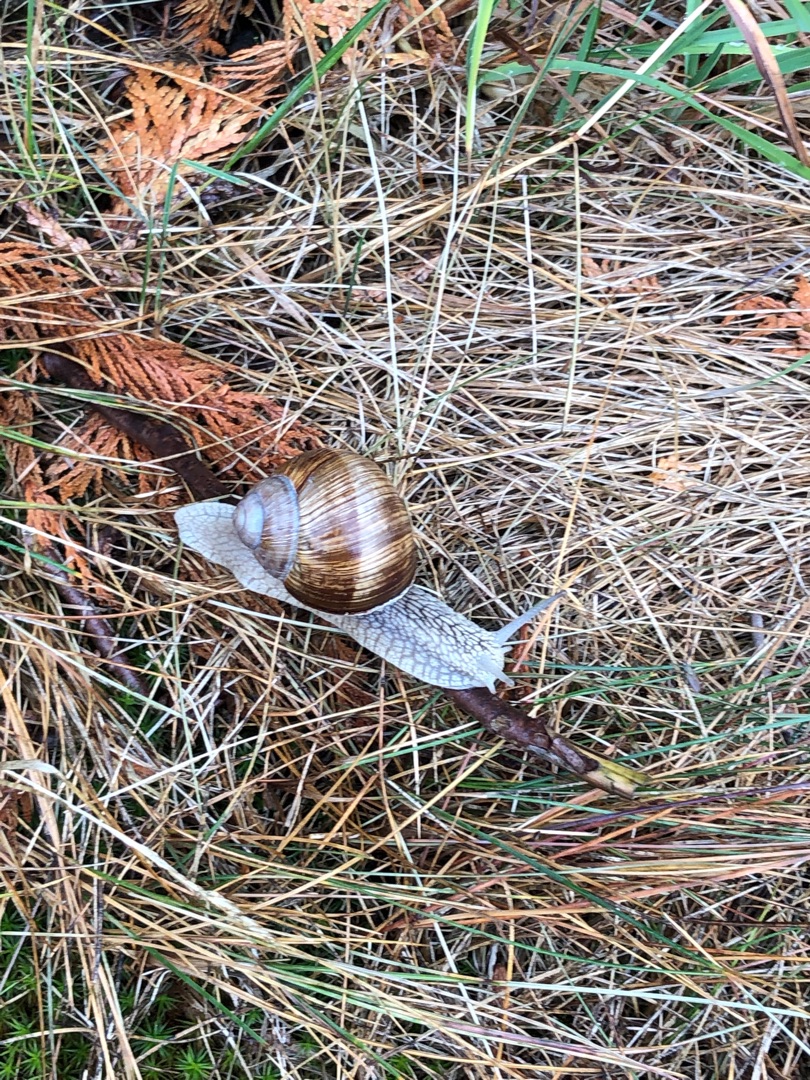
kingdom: Animalia
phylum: Mollusca
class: Gastropoda
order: Stylommatophora
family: Helicidae
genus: Helix
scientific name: Helix pomatia
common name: Vinbjergsnegl
